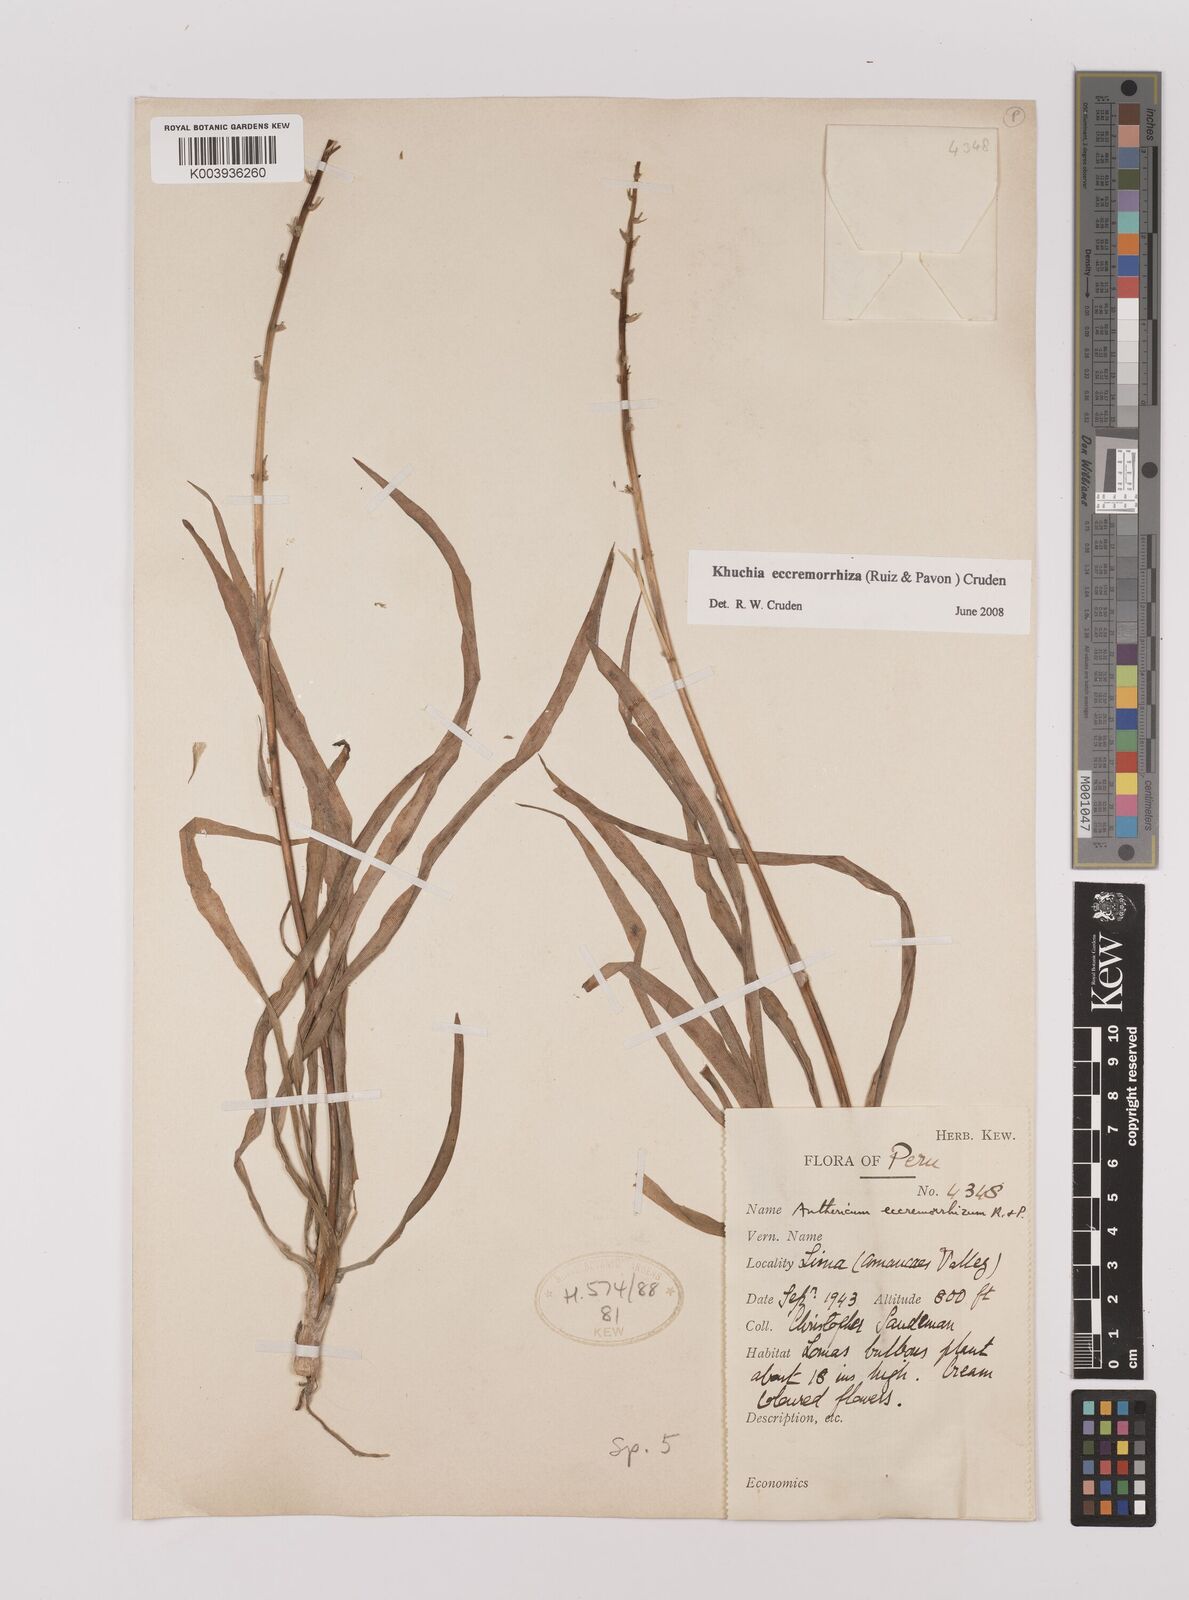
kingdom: Plantae
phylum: Tracheophyta
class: Liliopsida
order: Asparagales
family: Asparagaceae
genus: Echeandia
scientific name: Echeandia
